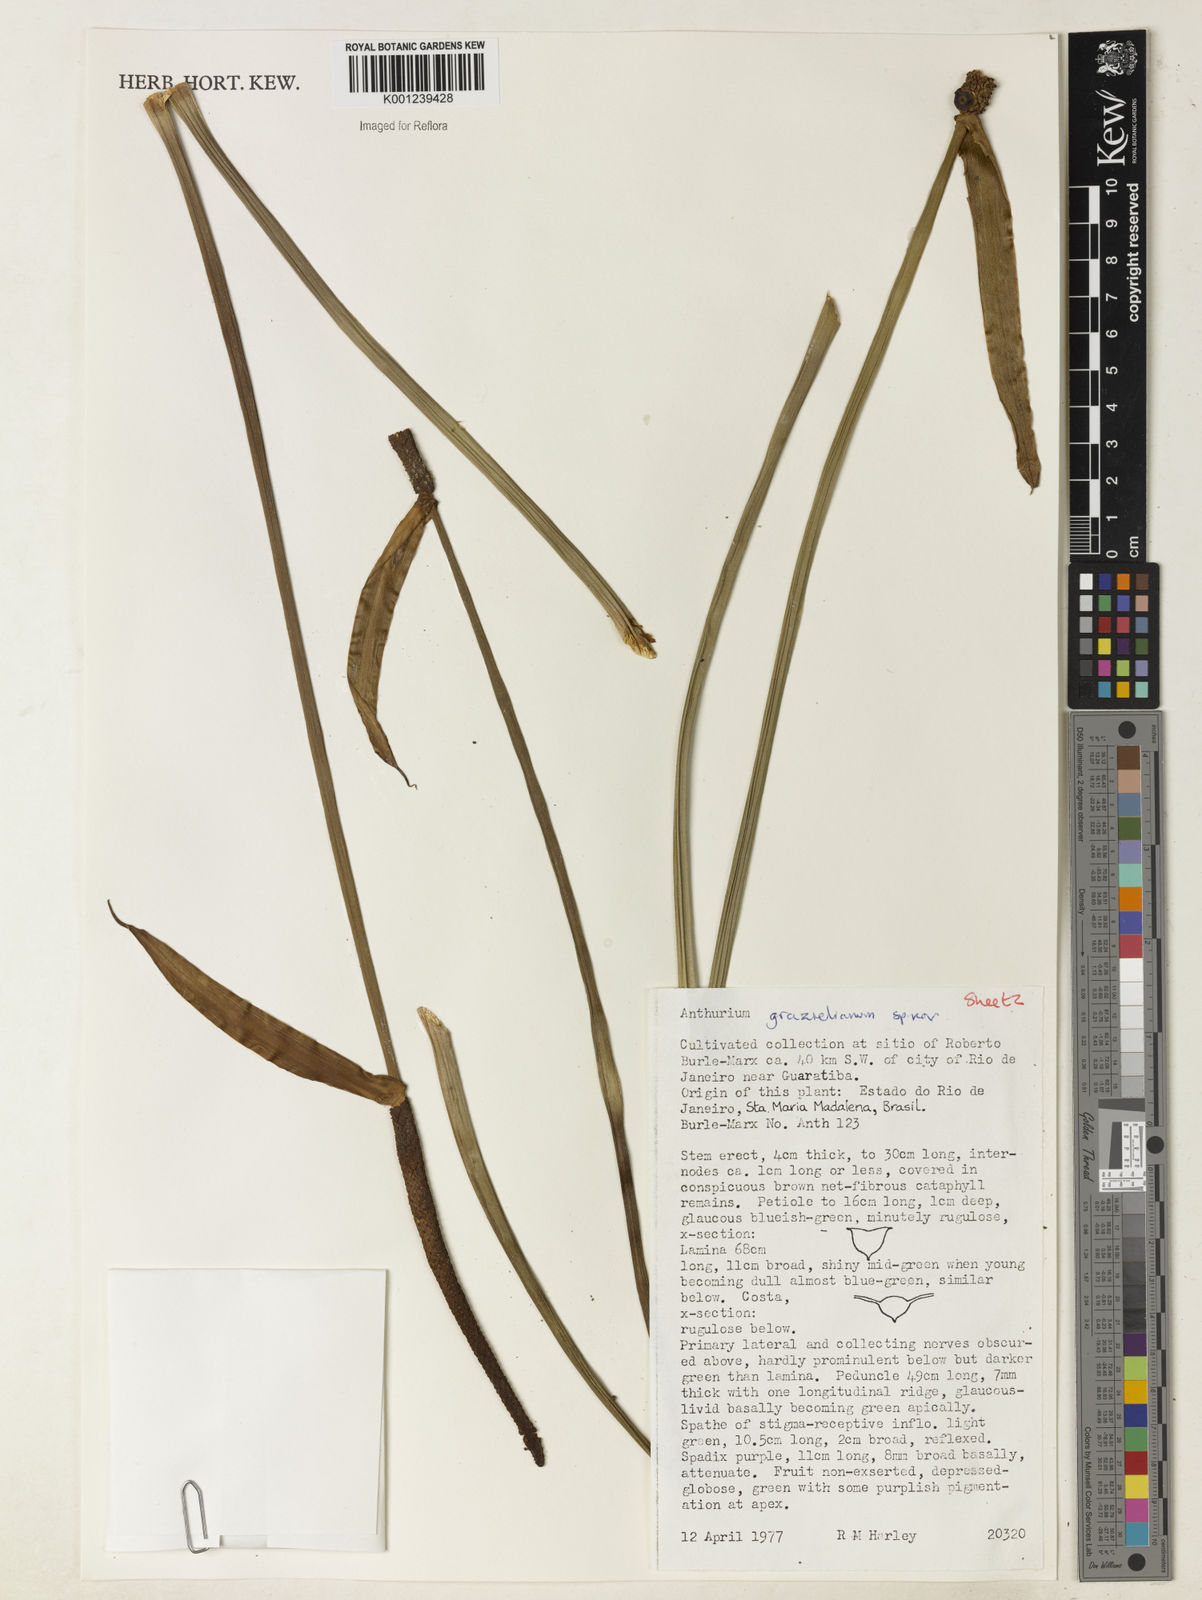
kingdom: Plantae
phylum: Tracheophyta
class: Liliopsida
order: Alismatales
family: Araceae
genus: Anthurium
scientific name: Anthurium
